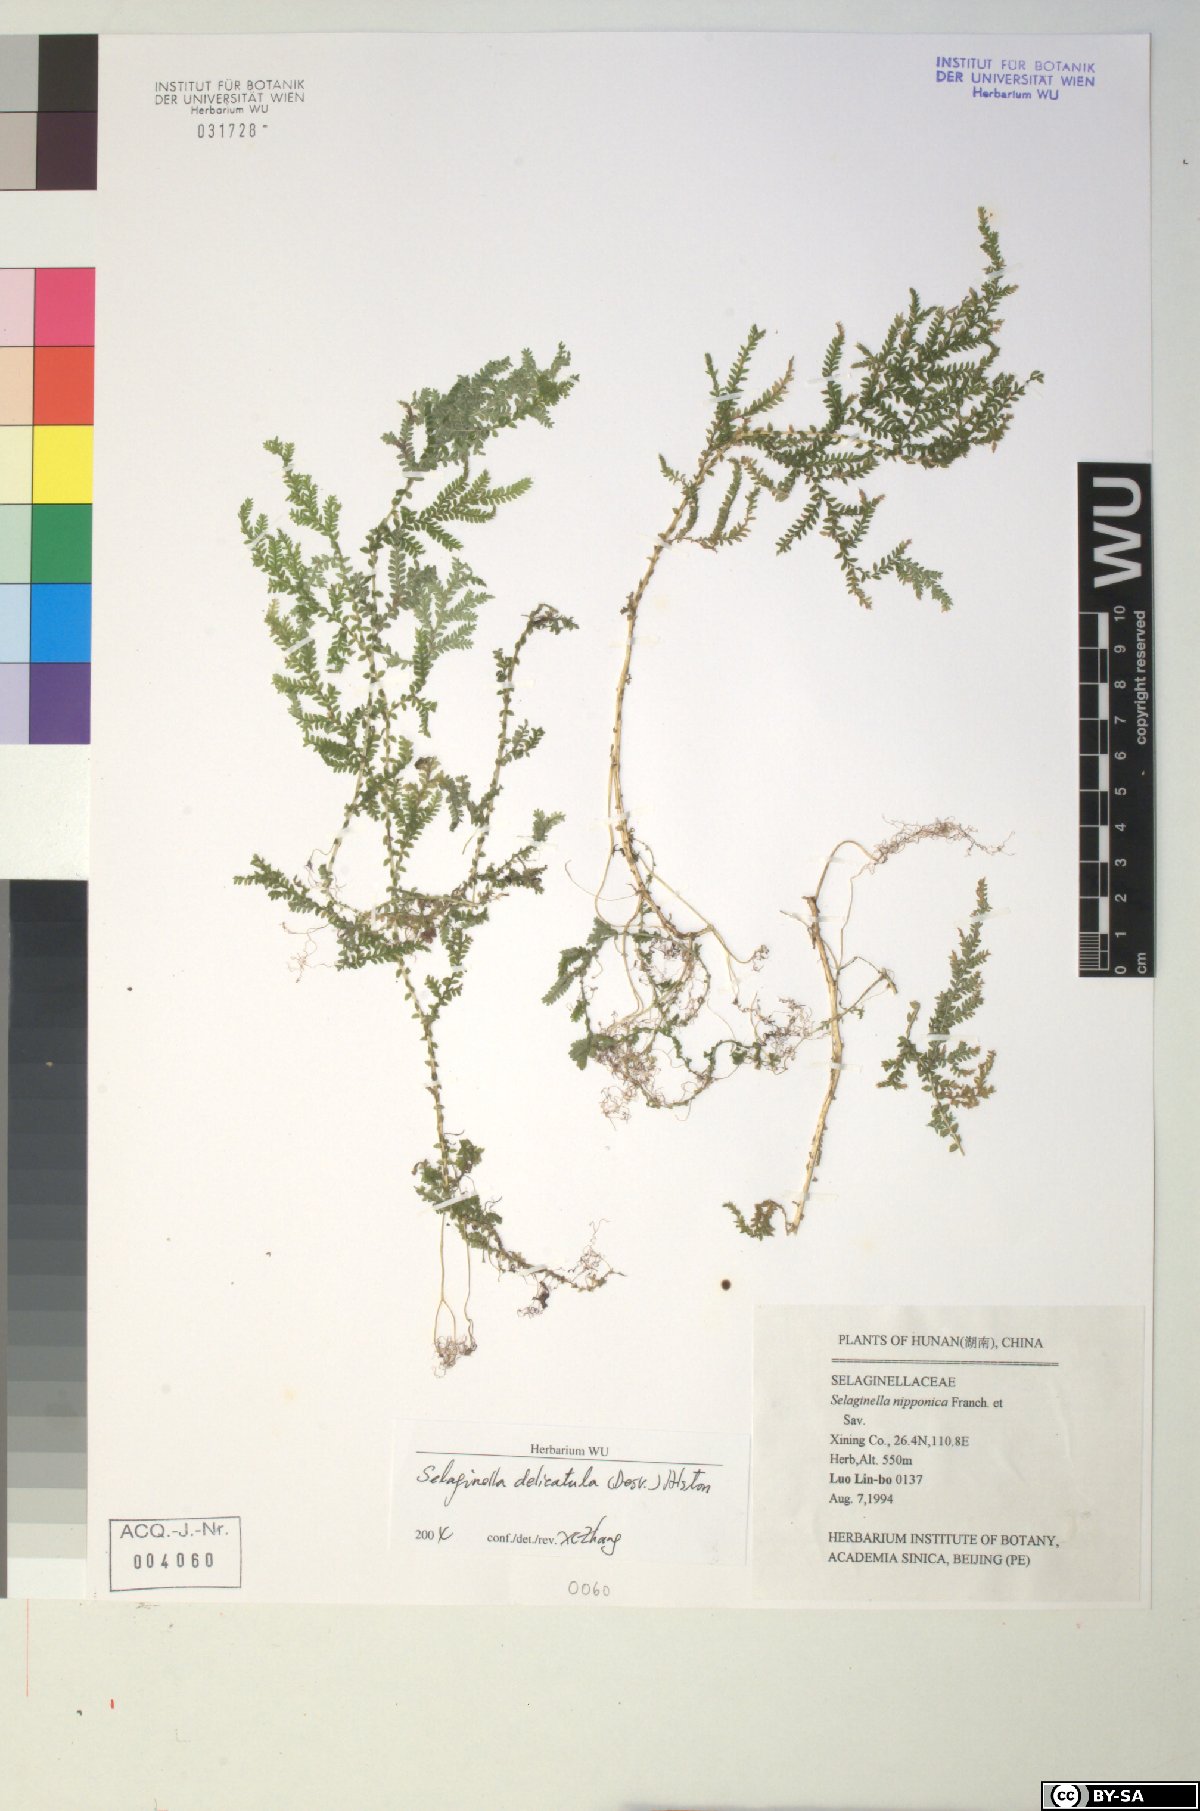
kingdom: Plantae
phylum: Tracheophyta
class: Lycopodiopsida
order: Selaginellales
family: Selaginellaceae
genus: Selaginella
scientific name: Selaginella delicatula
